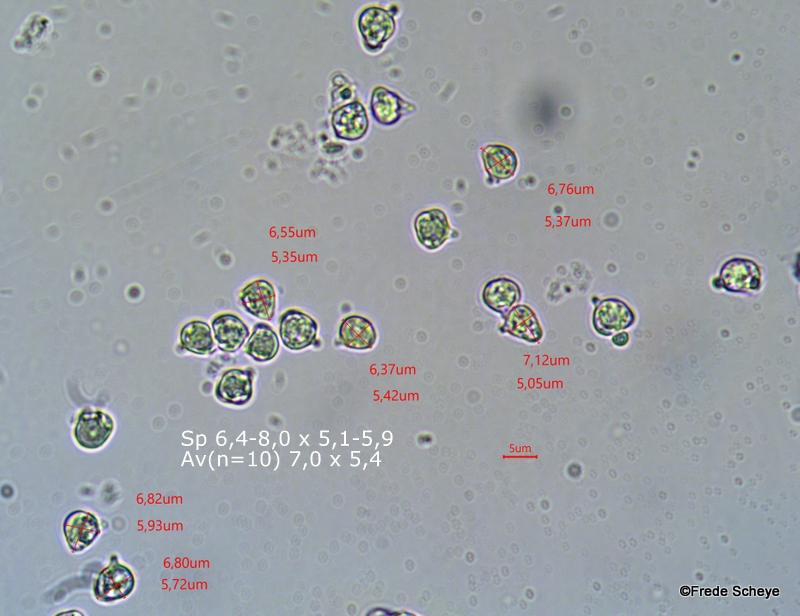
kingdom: Fungi
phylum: Basidiomycota
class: Agaricomycetes
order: Agaricales
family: Clavariaceae
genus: Clavulinopsis
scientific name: Clavulinopsis laeticolor
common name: flamme-køllesvamp
